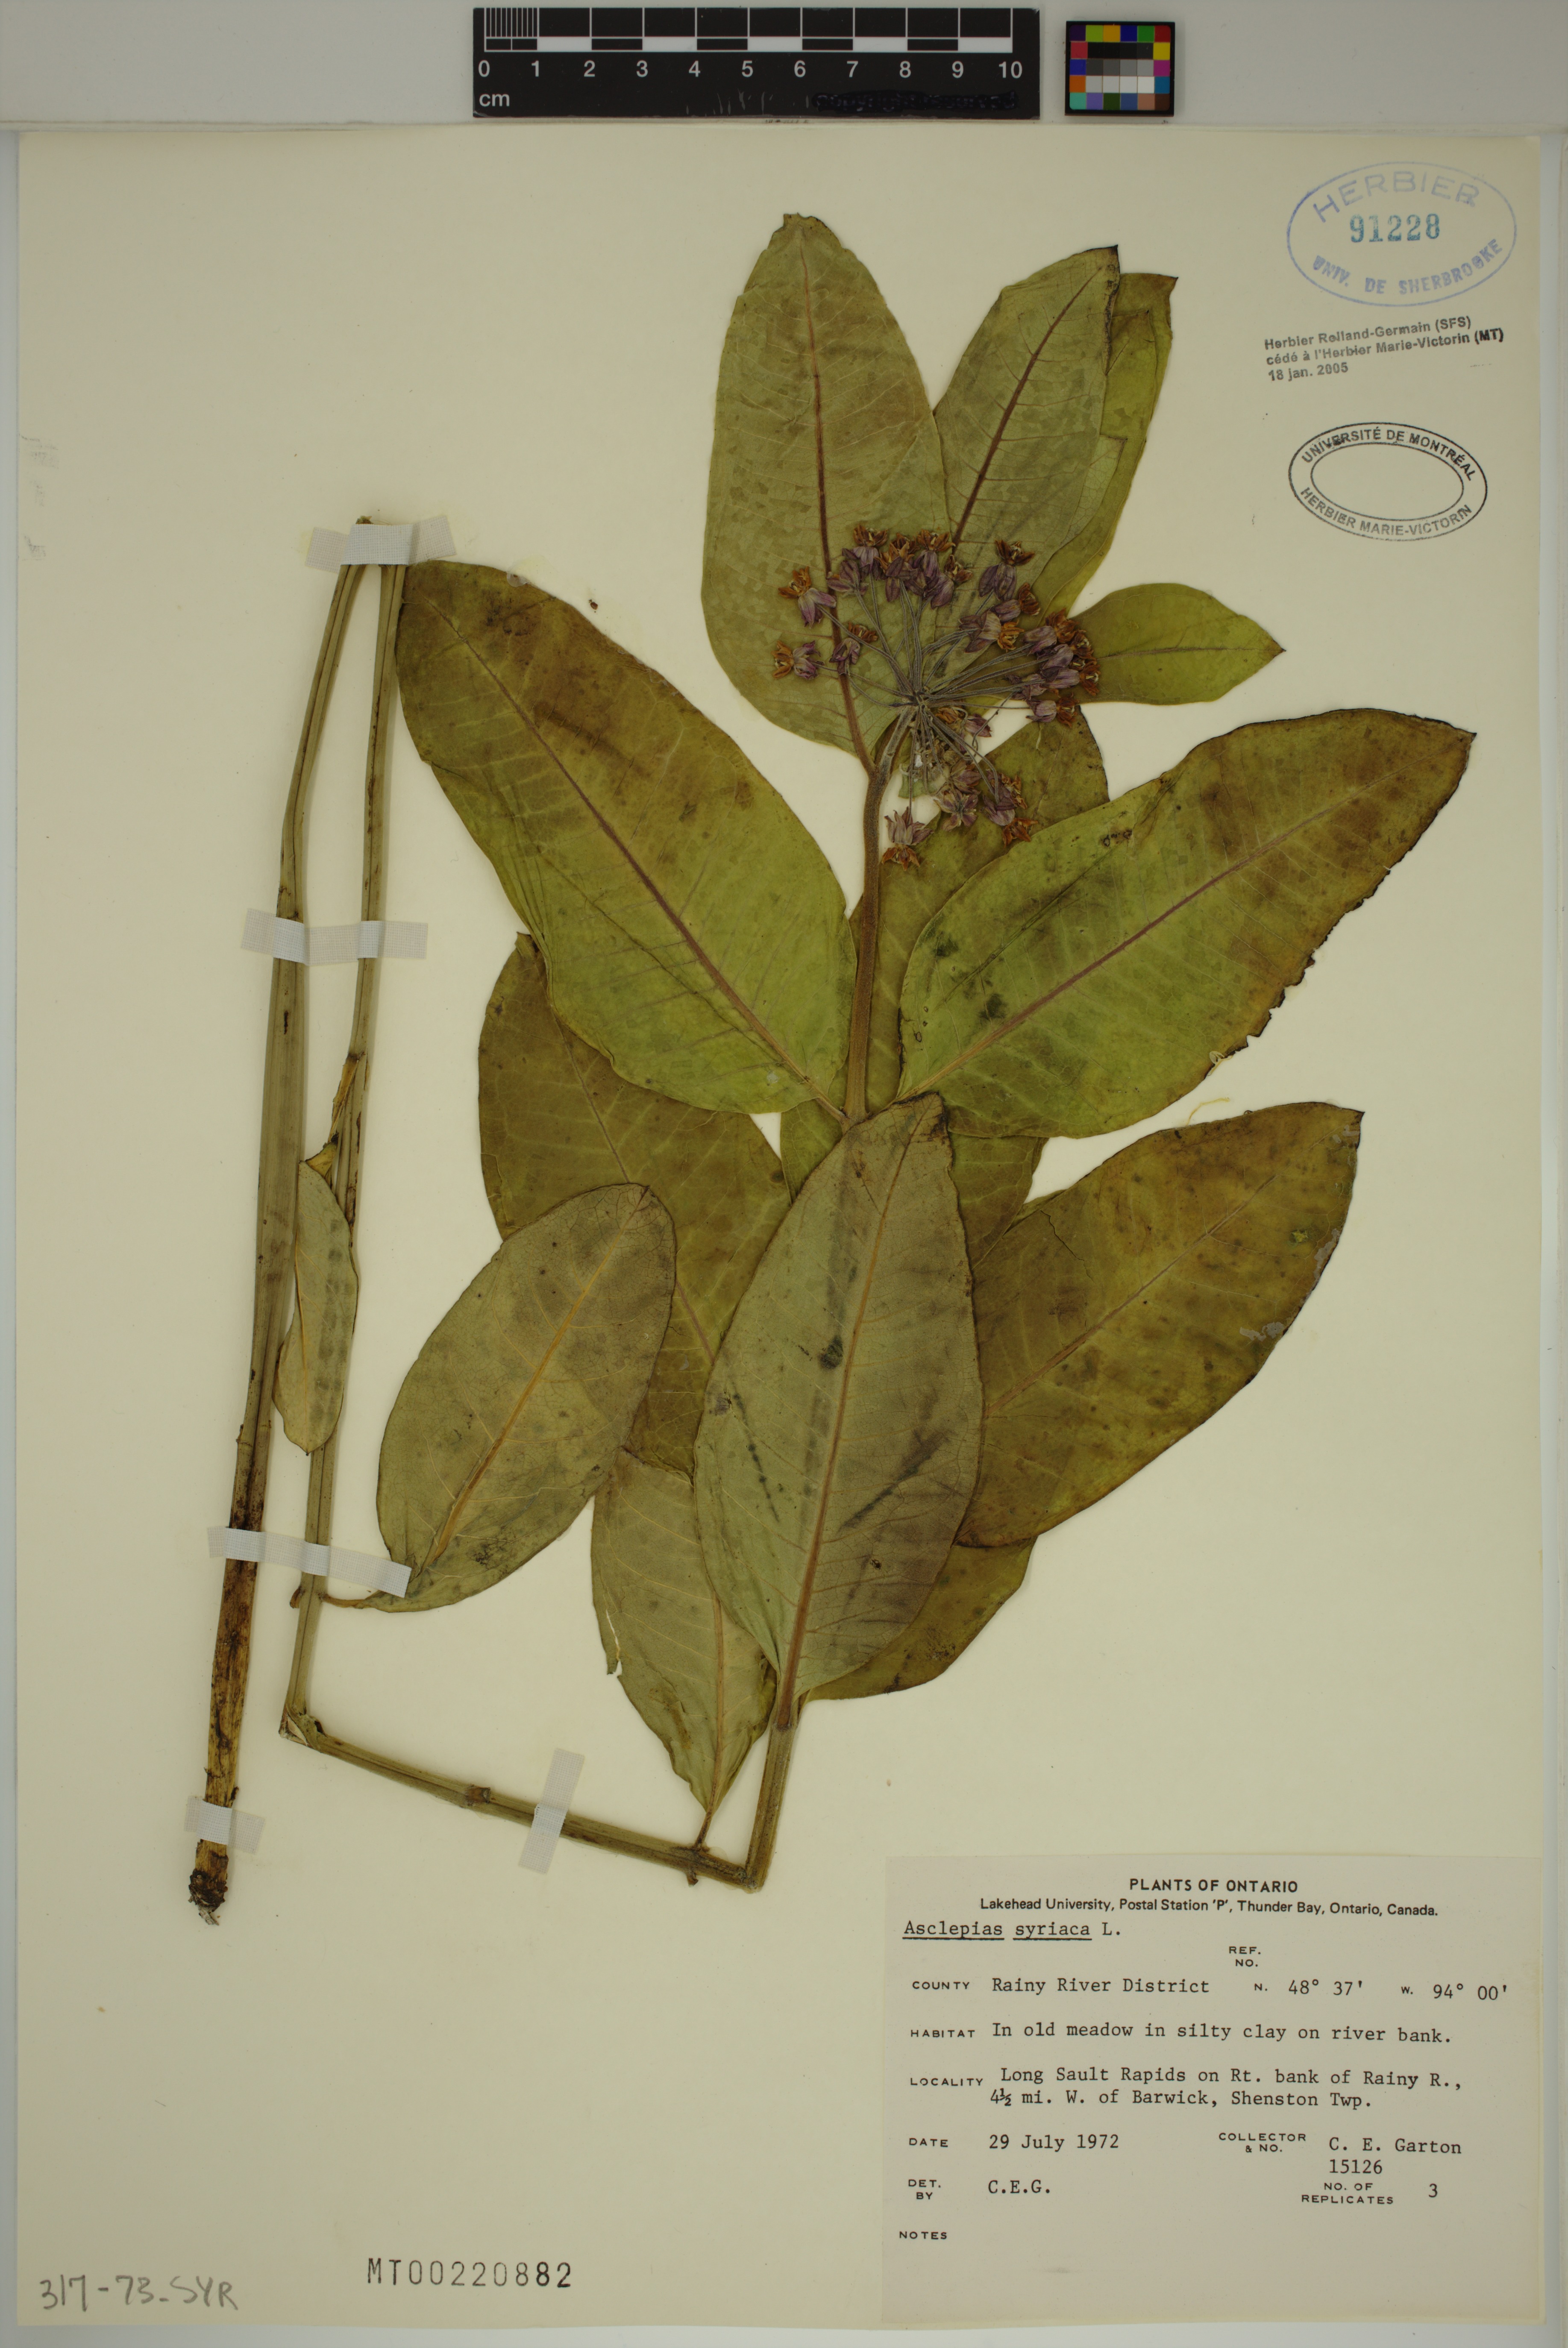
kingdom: Plantae
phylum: Tracheophyta
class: Magnoliopsida
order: Gentianales
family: Apocynaceae
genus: Asclepias
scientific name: Asclepias syriaca
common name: Common milkweed
